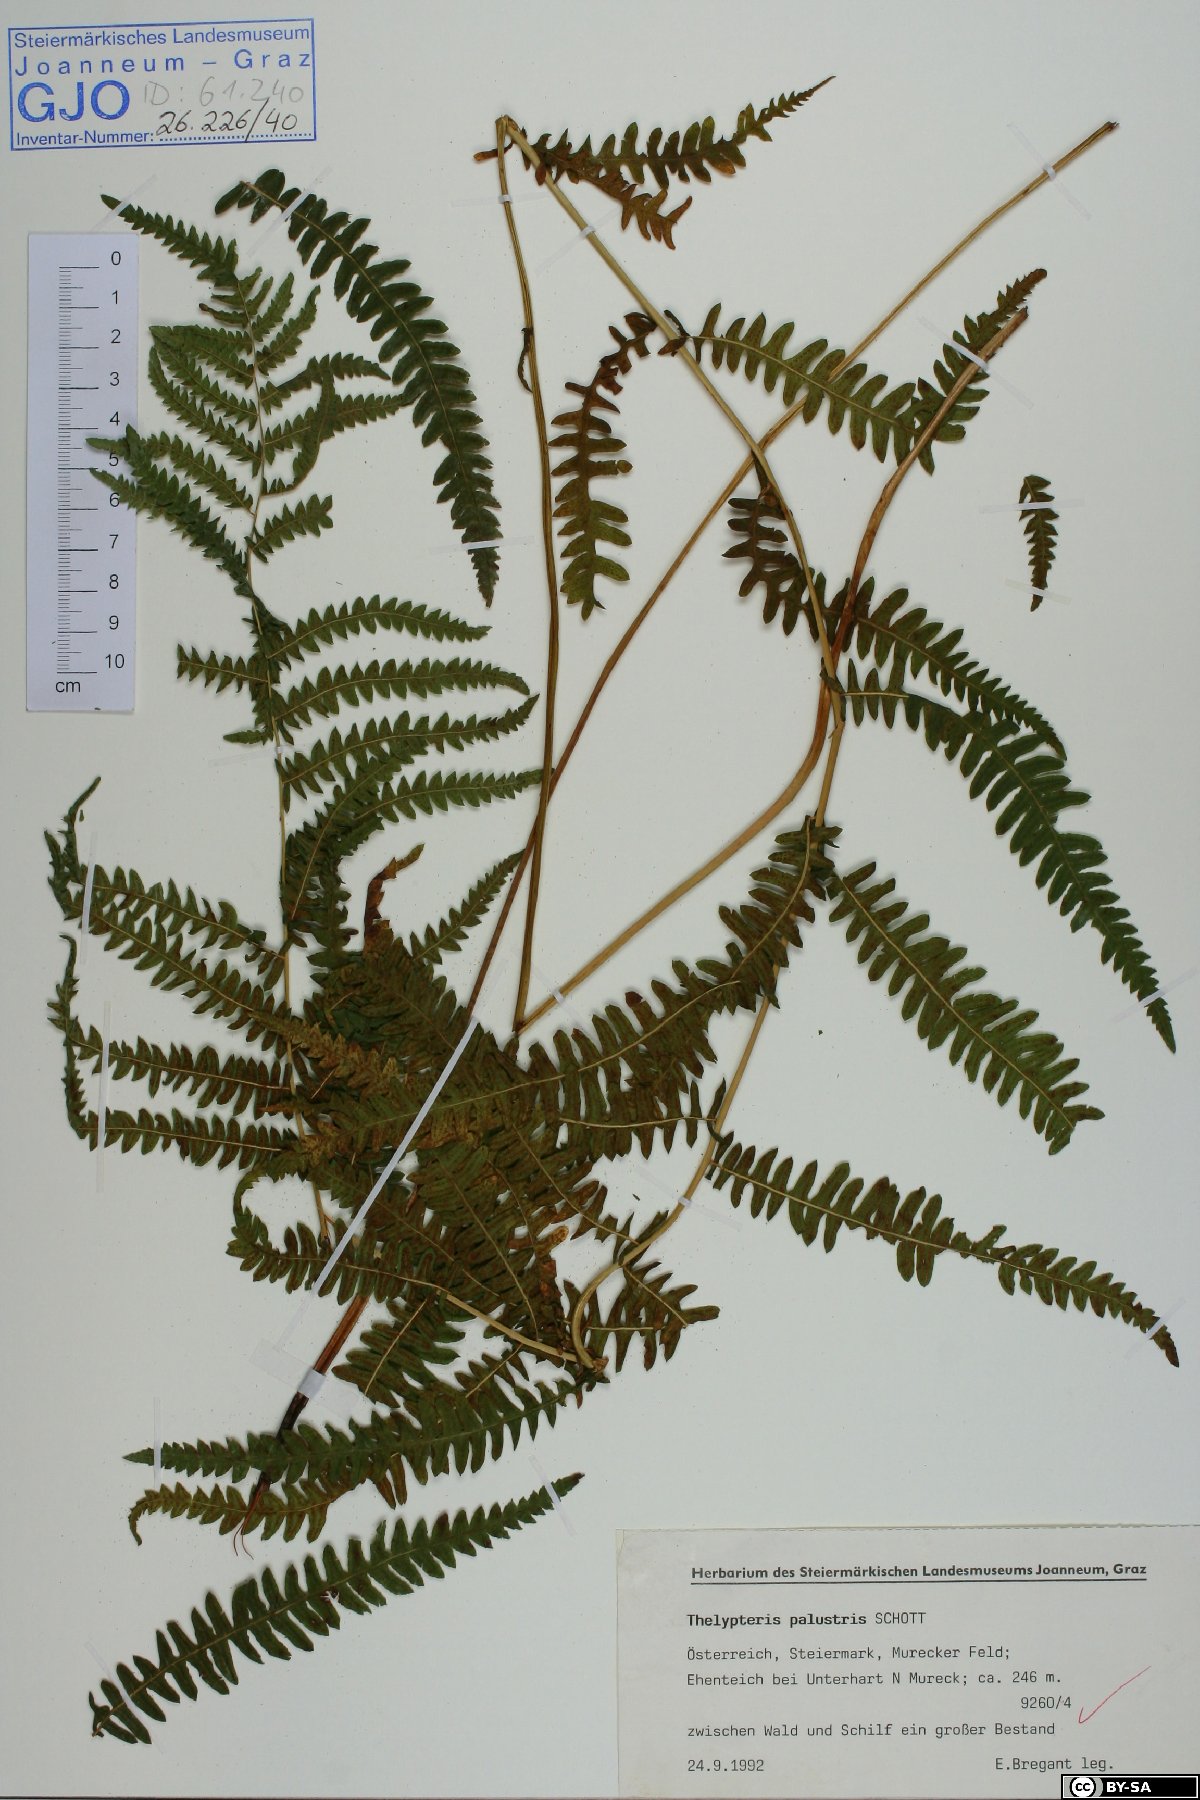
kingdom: Plantae
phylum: Tracheophyta
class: Polypodiopsida
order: Polypodiales
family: Thelypteridaceae
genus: Thelypteris
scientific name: Thelypteris palustris
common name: Marsh fern
